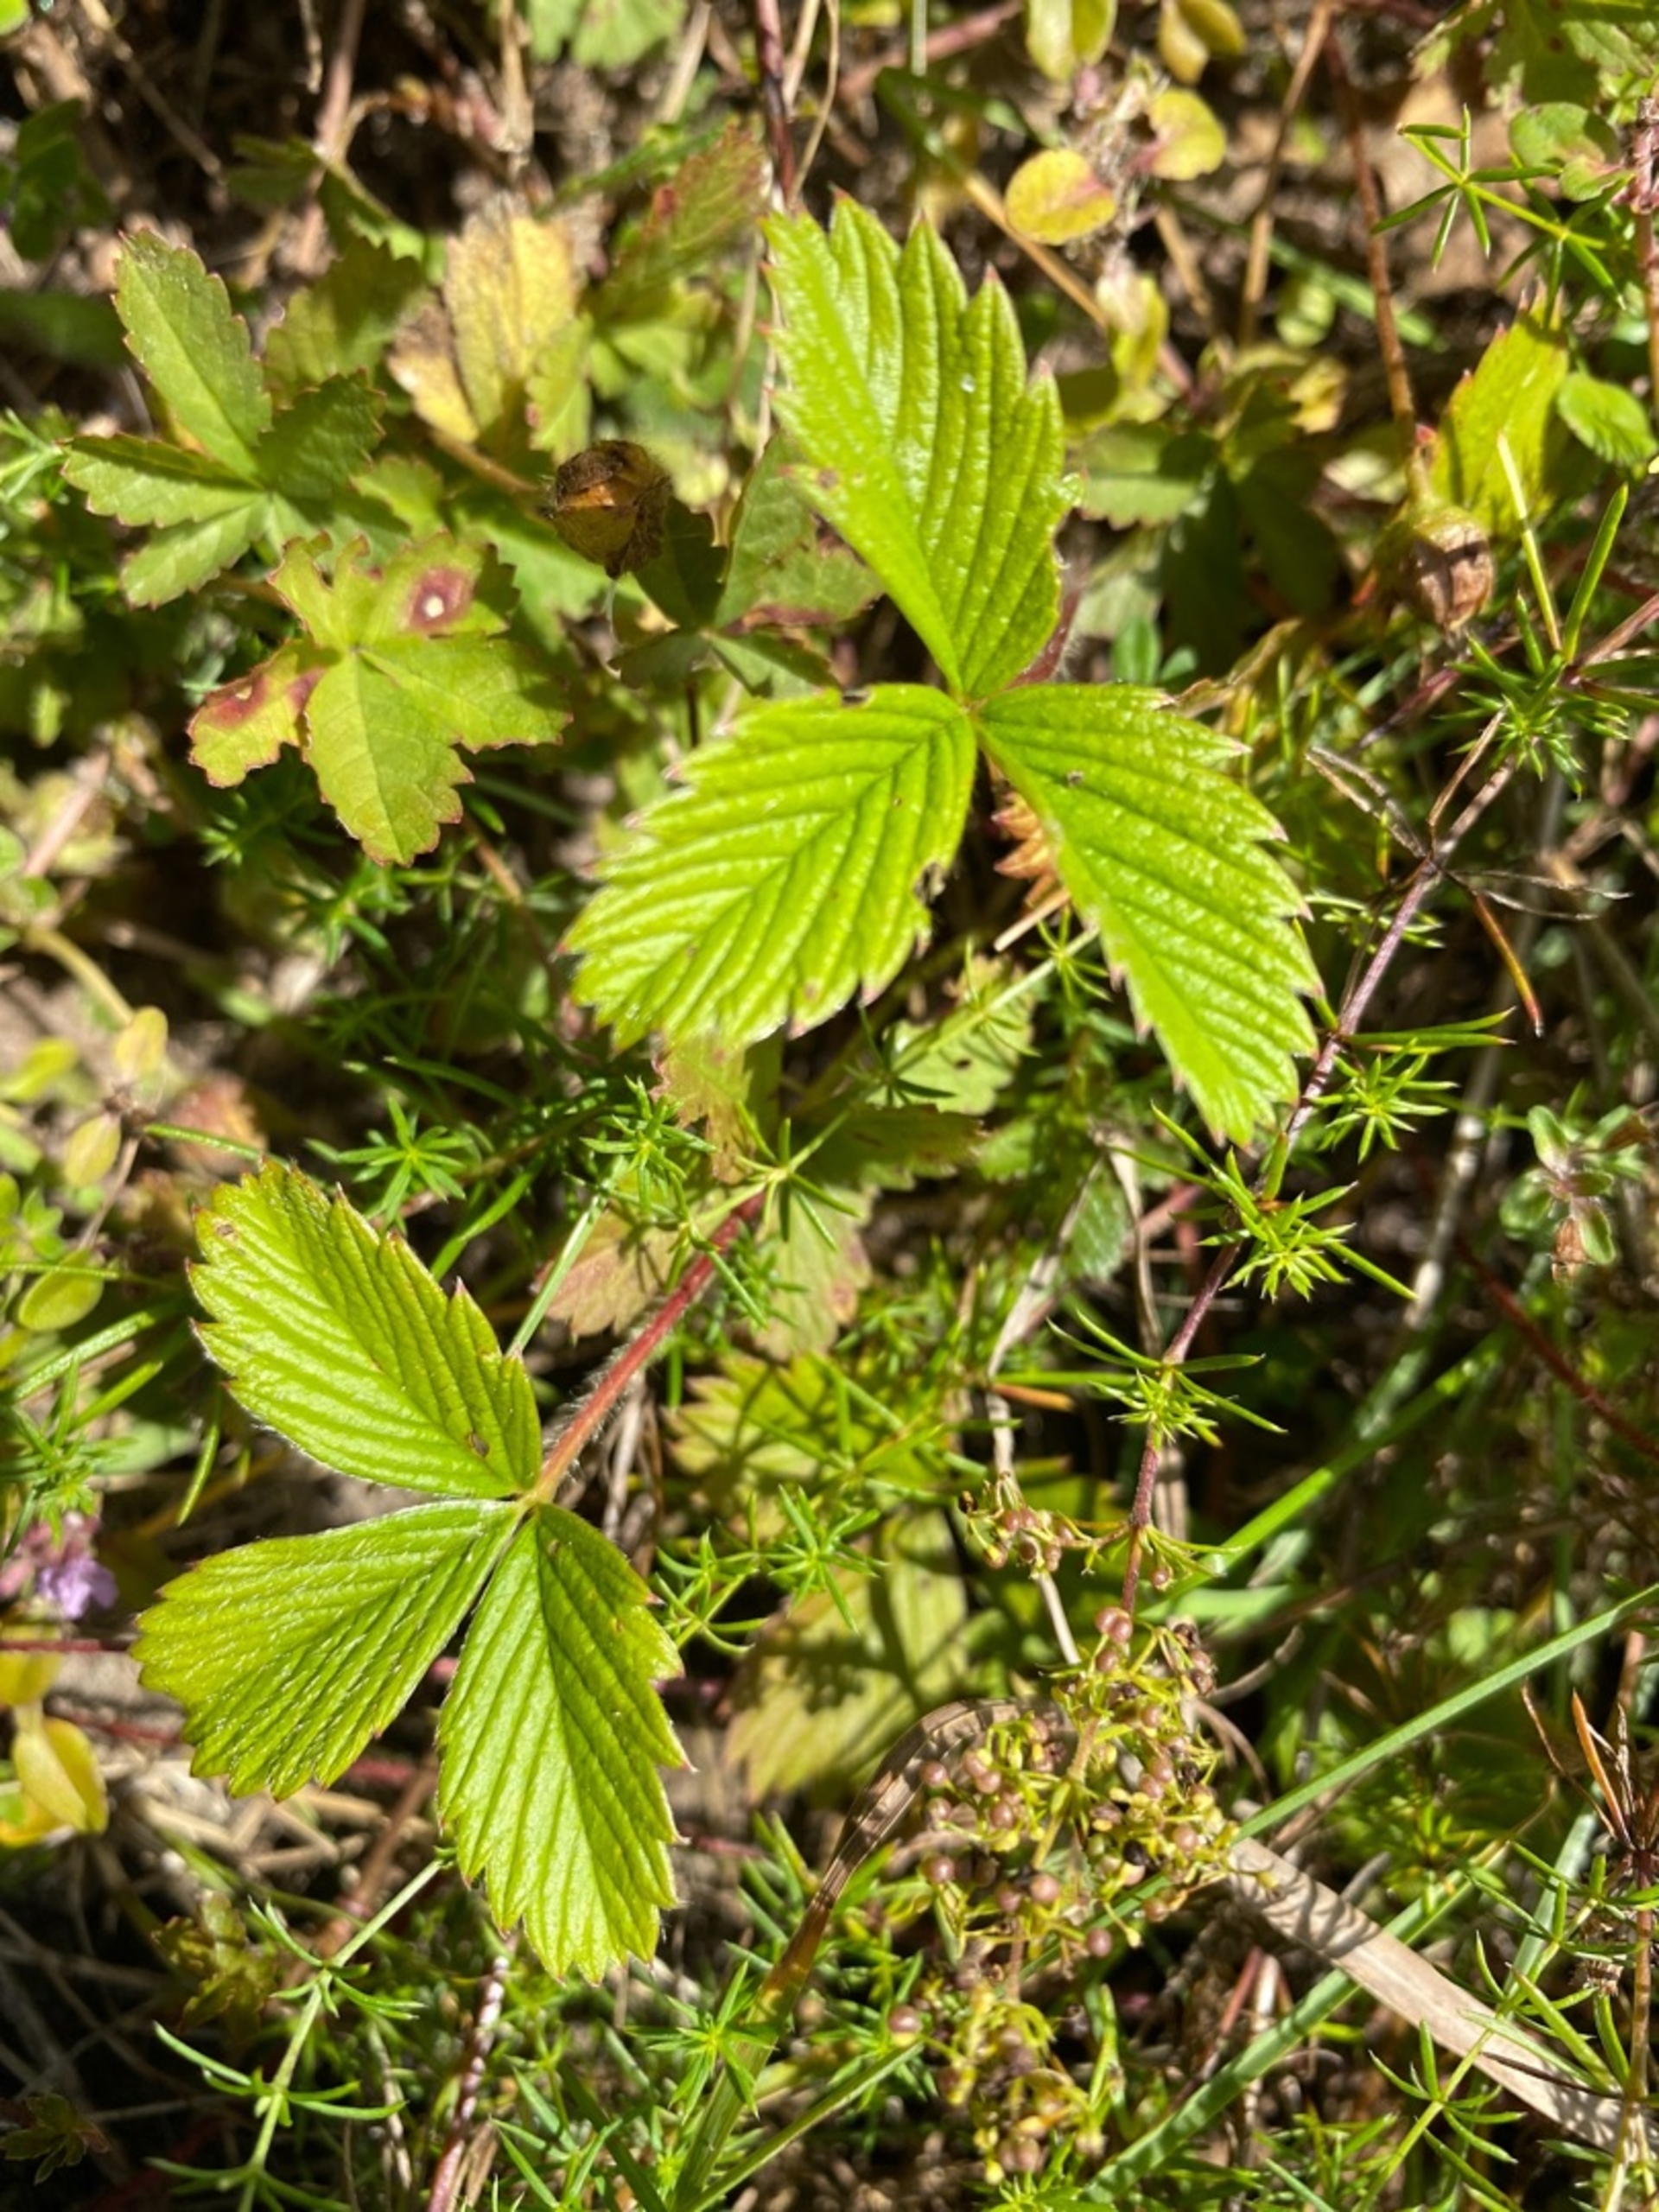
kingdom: Plantae
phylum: Tracheophyta
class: Magnoliopsida
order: Rosales
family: Rosaceae
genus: Fragaria
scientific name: Fragaria viridis
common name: Bakke-jordbær
